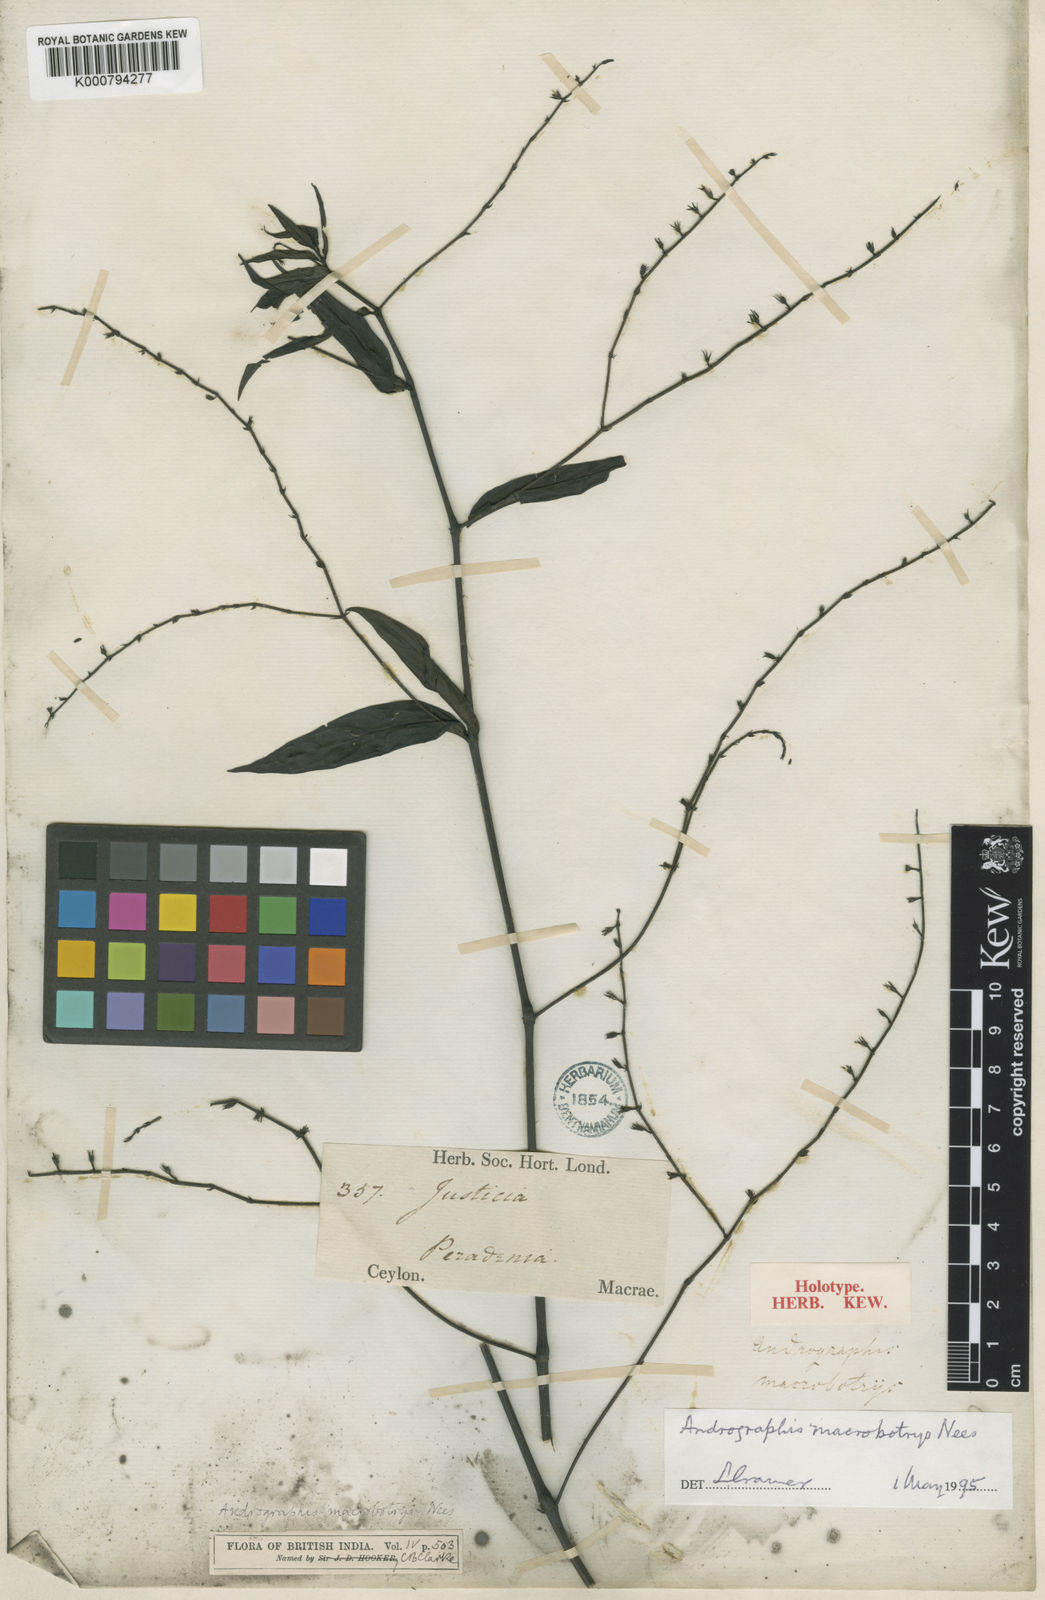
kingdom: Plantae
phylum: Tracheophyta
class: Magnoliopsida
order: Lamiales
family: Acanthaceae
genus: Andrographis
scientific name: Andrographis macrobotrys
